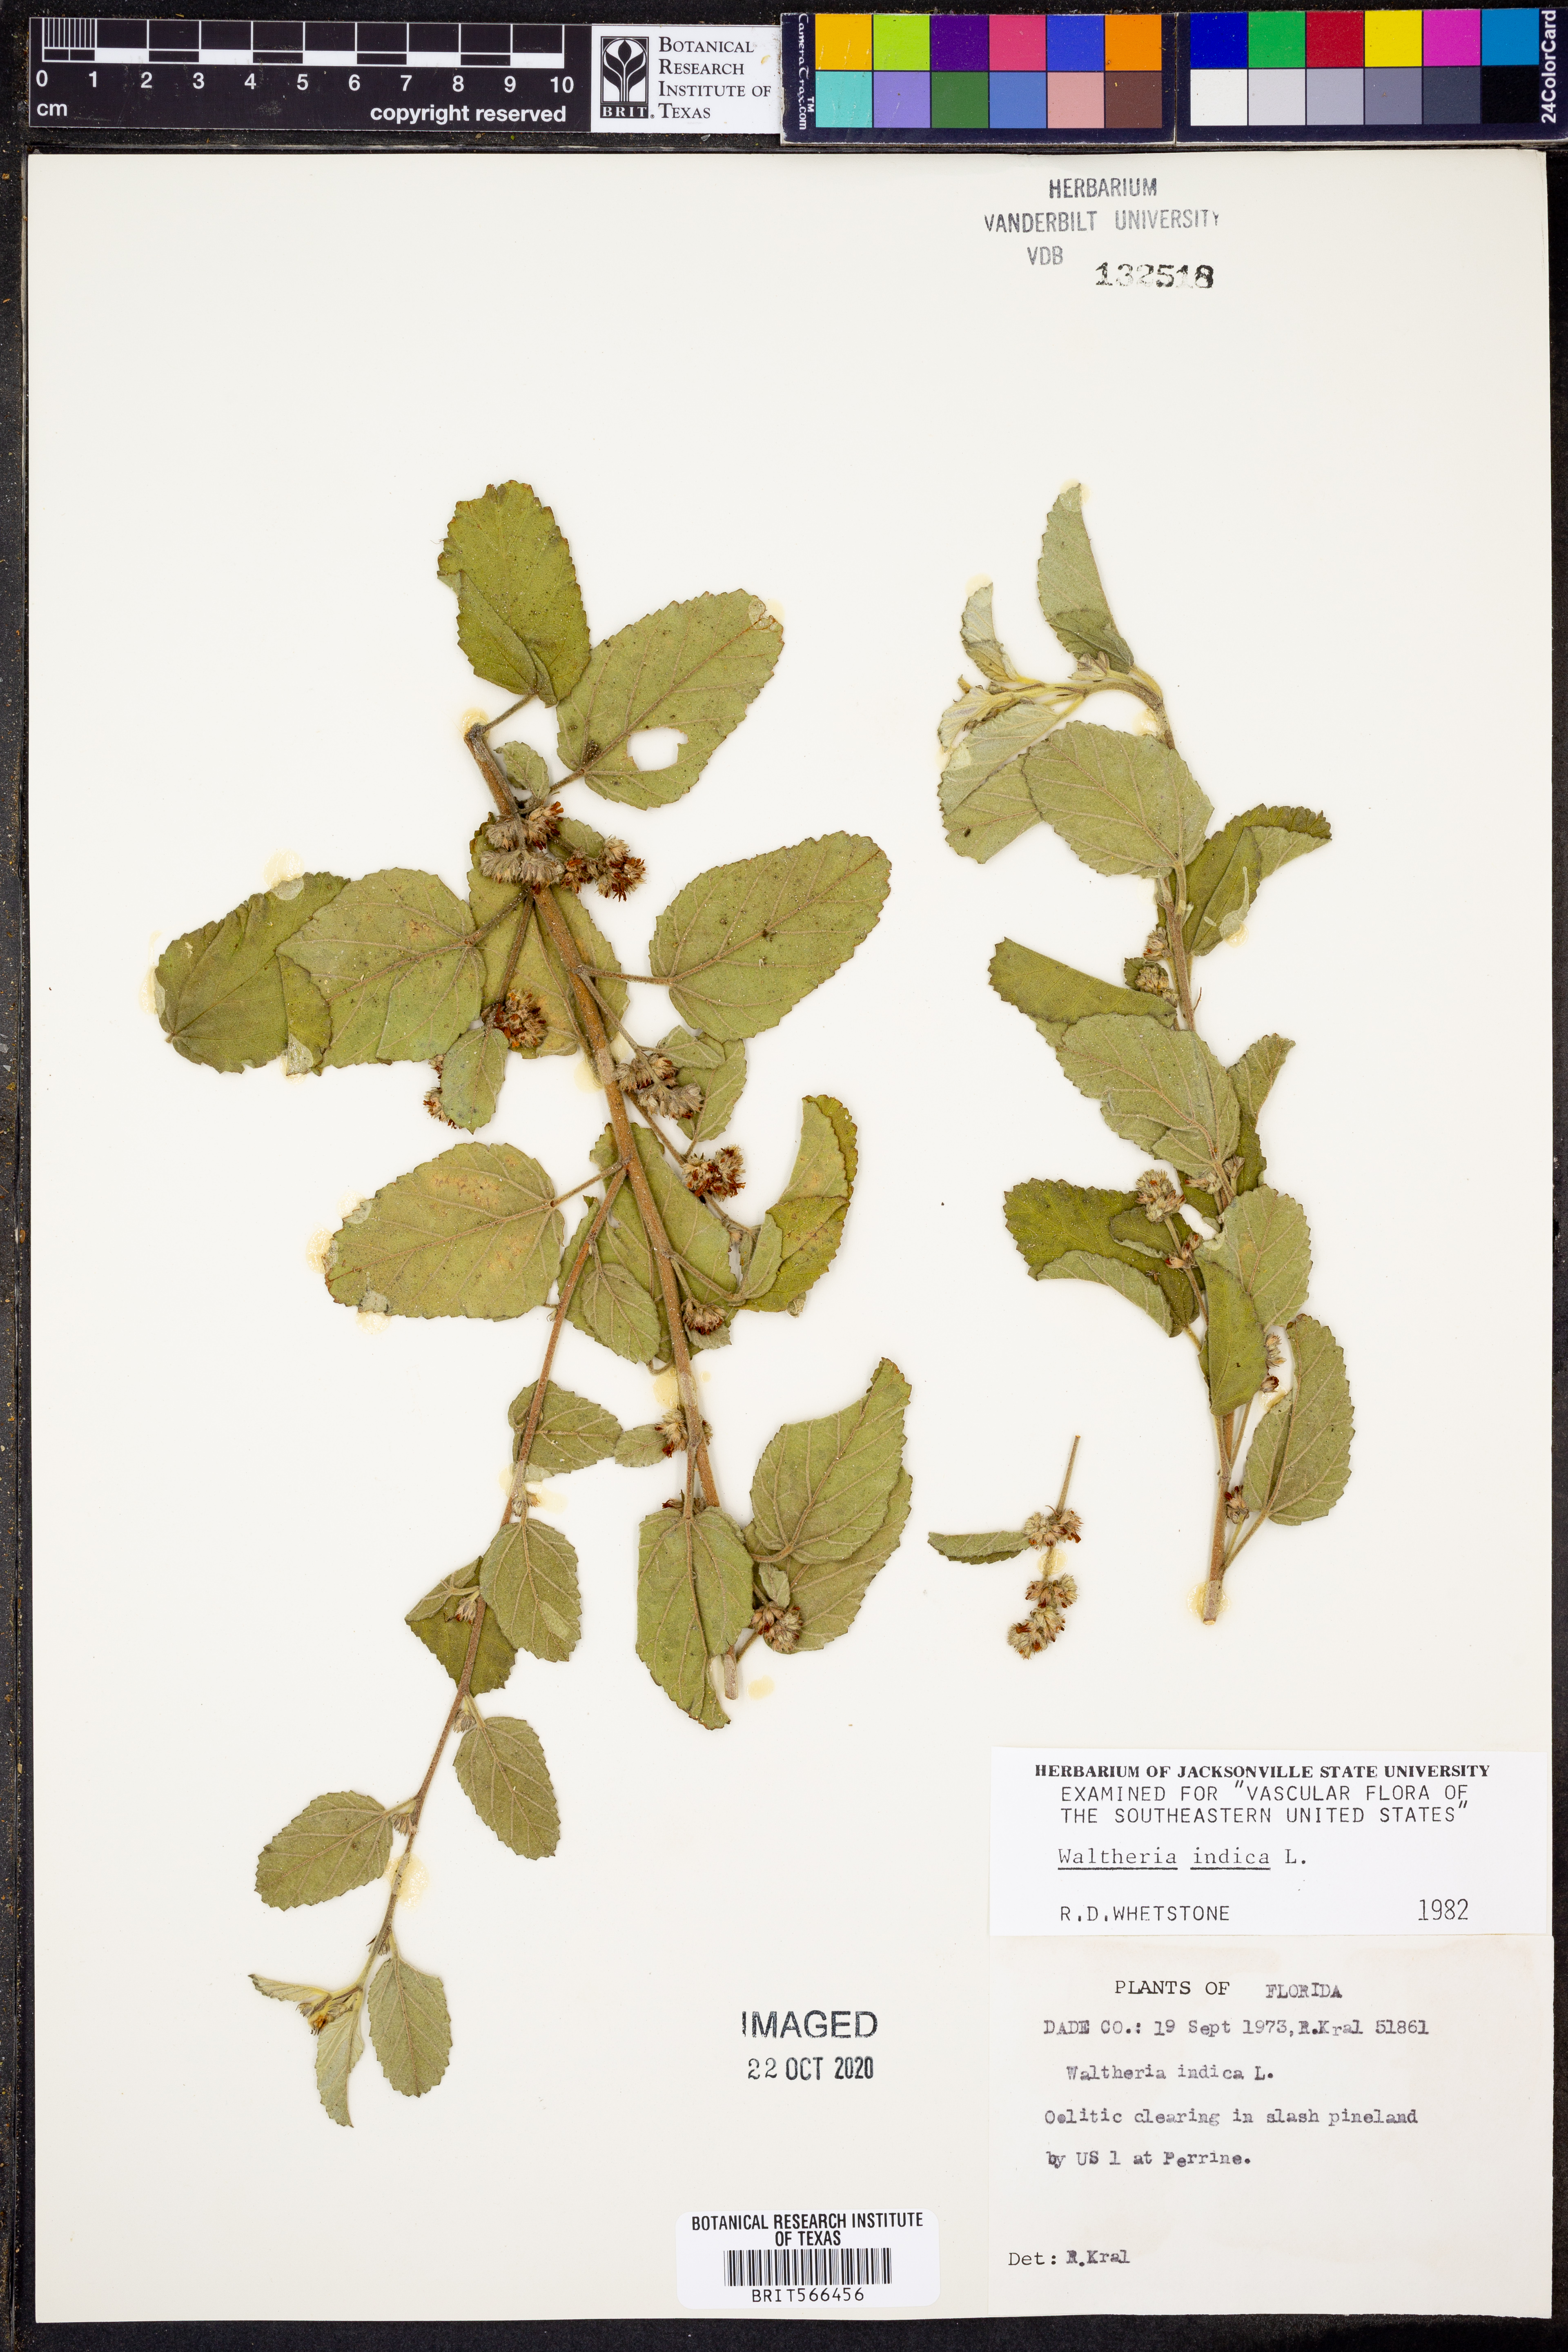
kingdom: Plantae
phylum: Tracheophyta
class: Magnoliopsida
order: Malvales
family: Malvaceae
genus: Waltheria
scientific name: Waltheria indica
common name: Leather-coat
